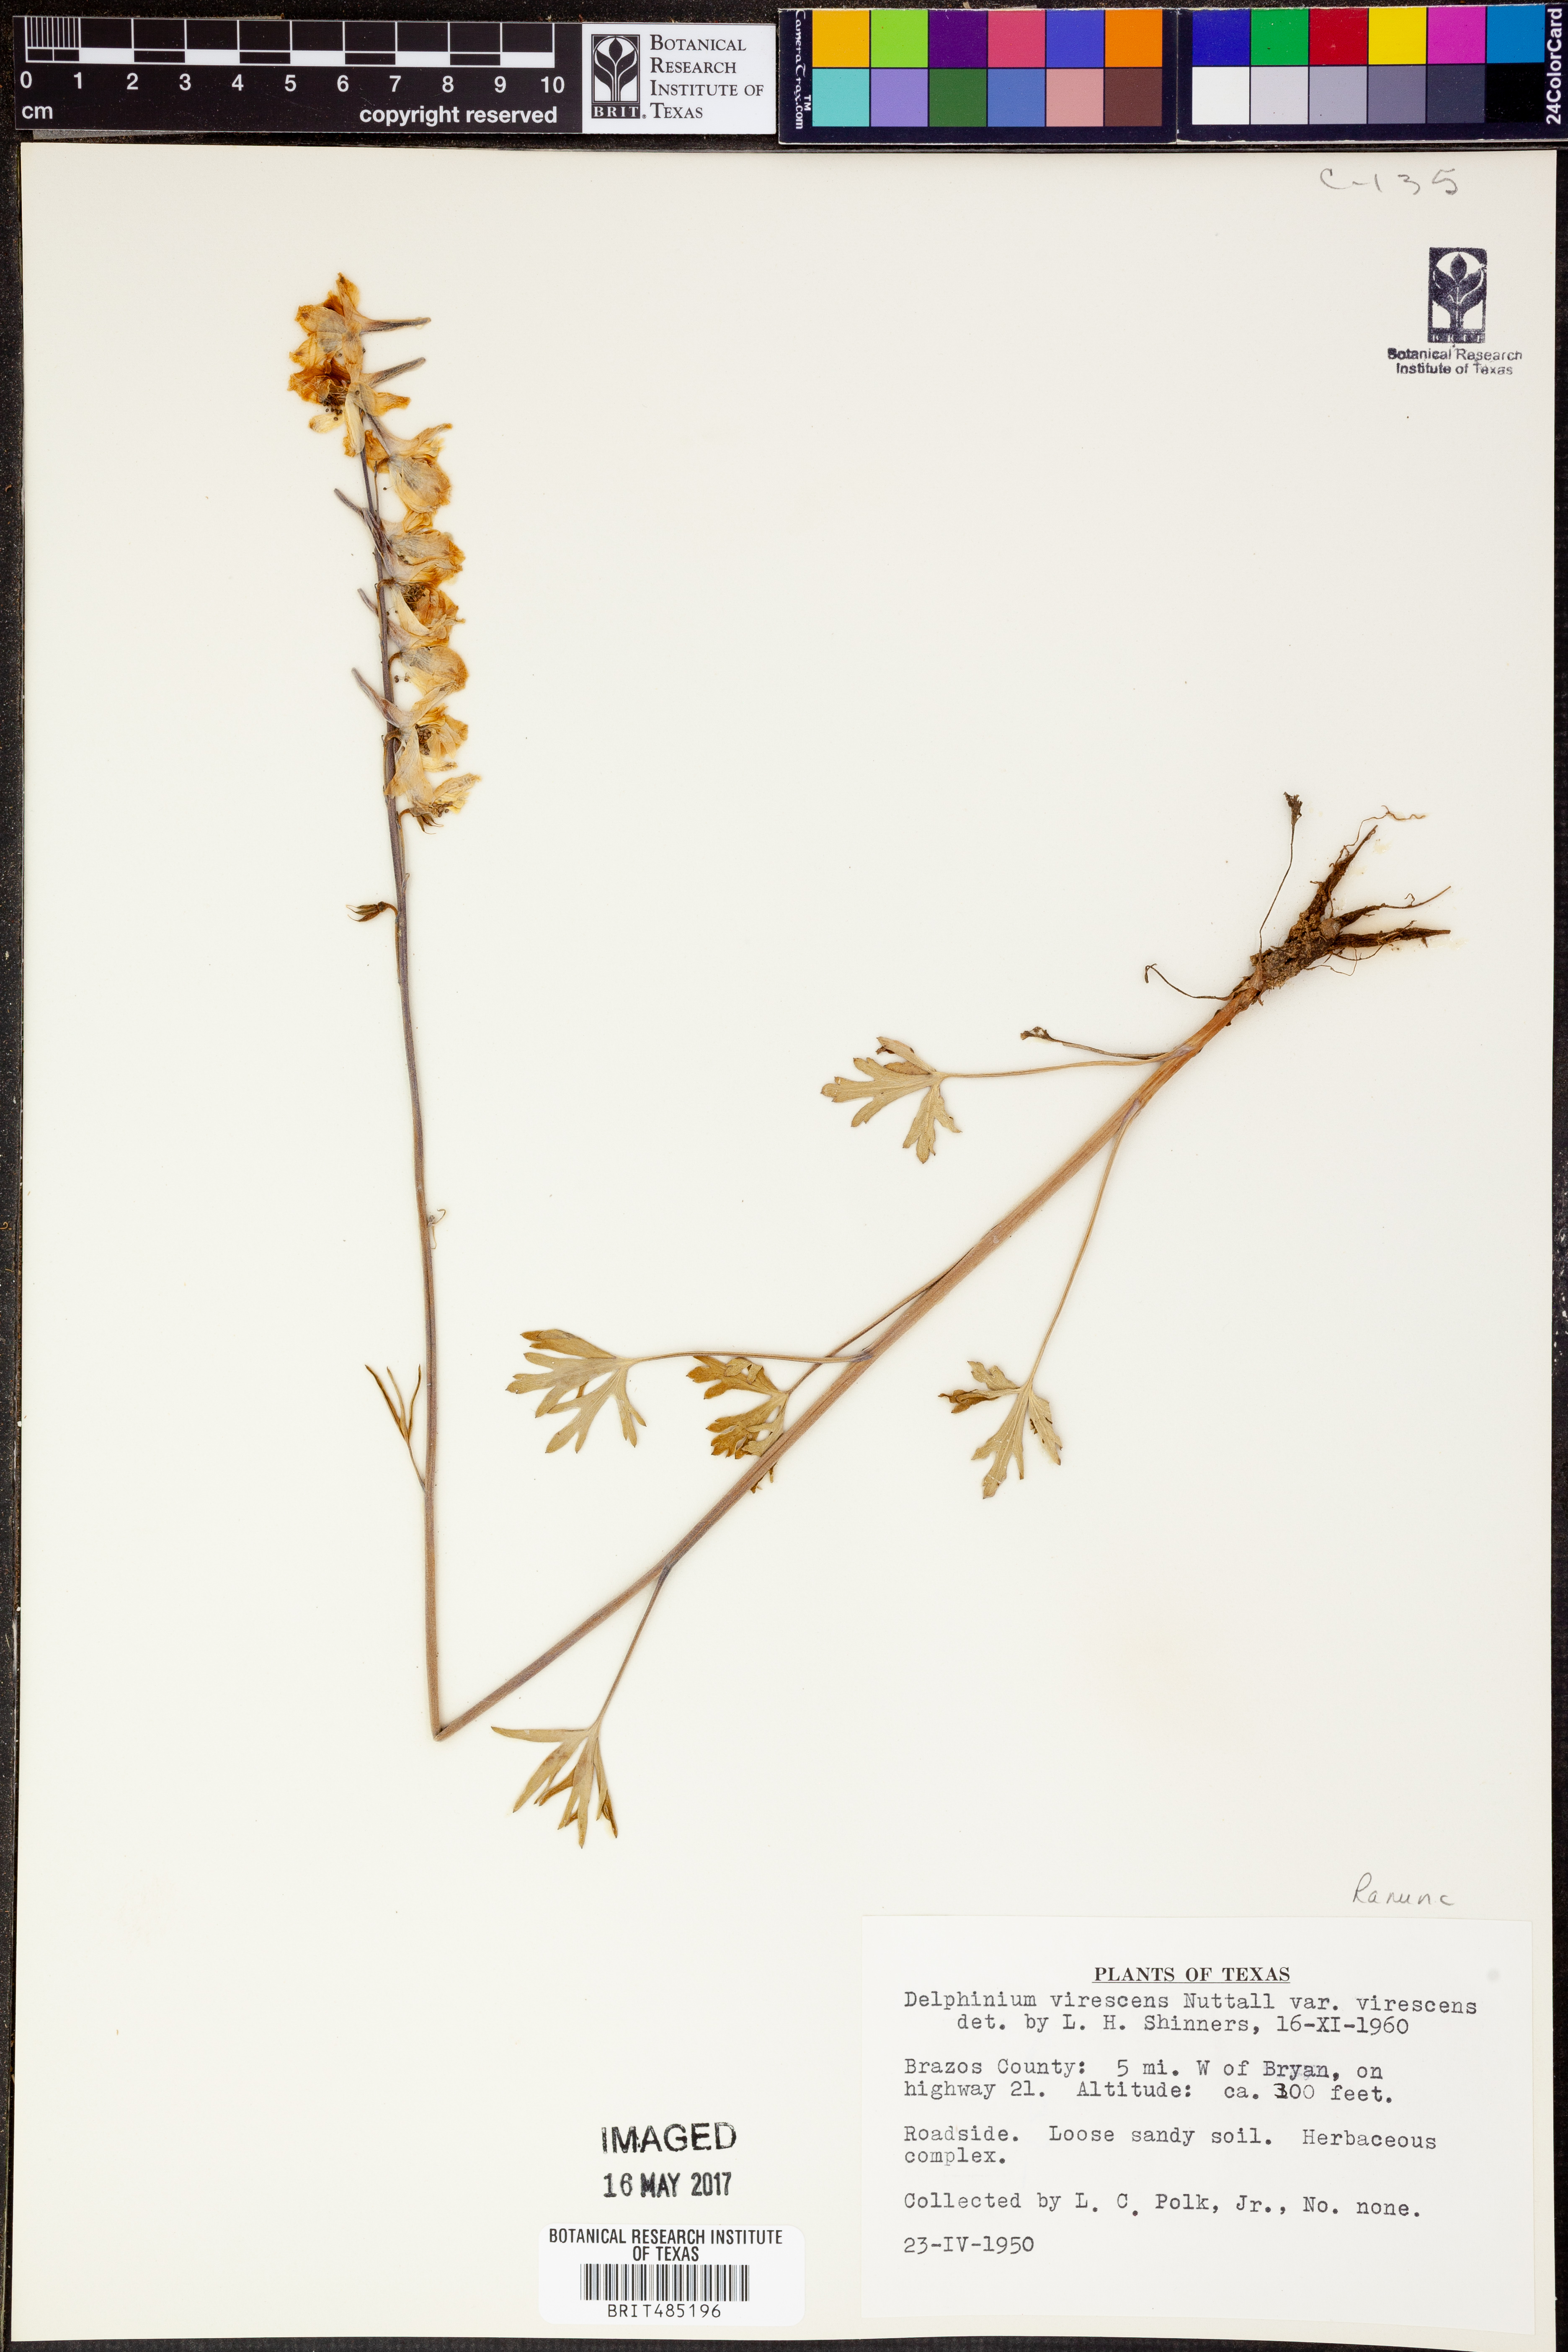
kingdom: Plantae
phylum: Tracheophyta
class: Magnoliopsida
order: Ranunculales
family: Ranunculaceae
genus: Delphinium
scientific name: Delphinium carolinianum
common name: Carolina larkspur
